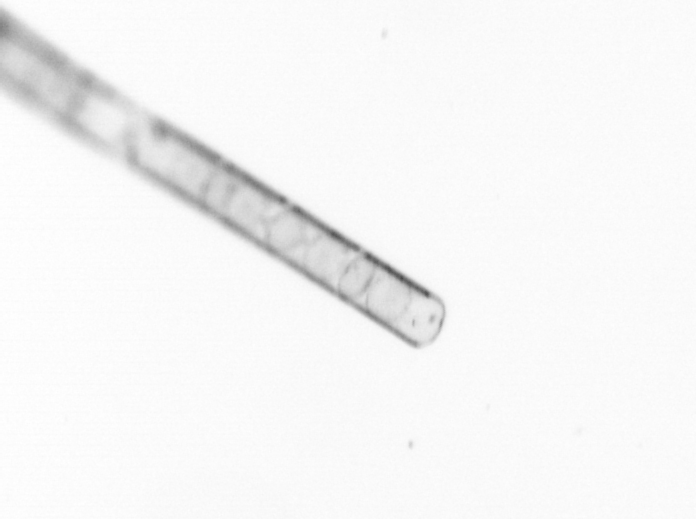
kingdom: Chromista
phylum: Ochrophyta
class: Bacillariophyceae
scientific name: Bacillariophyceae
